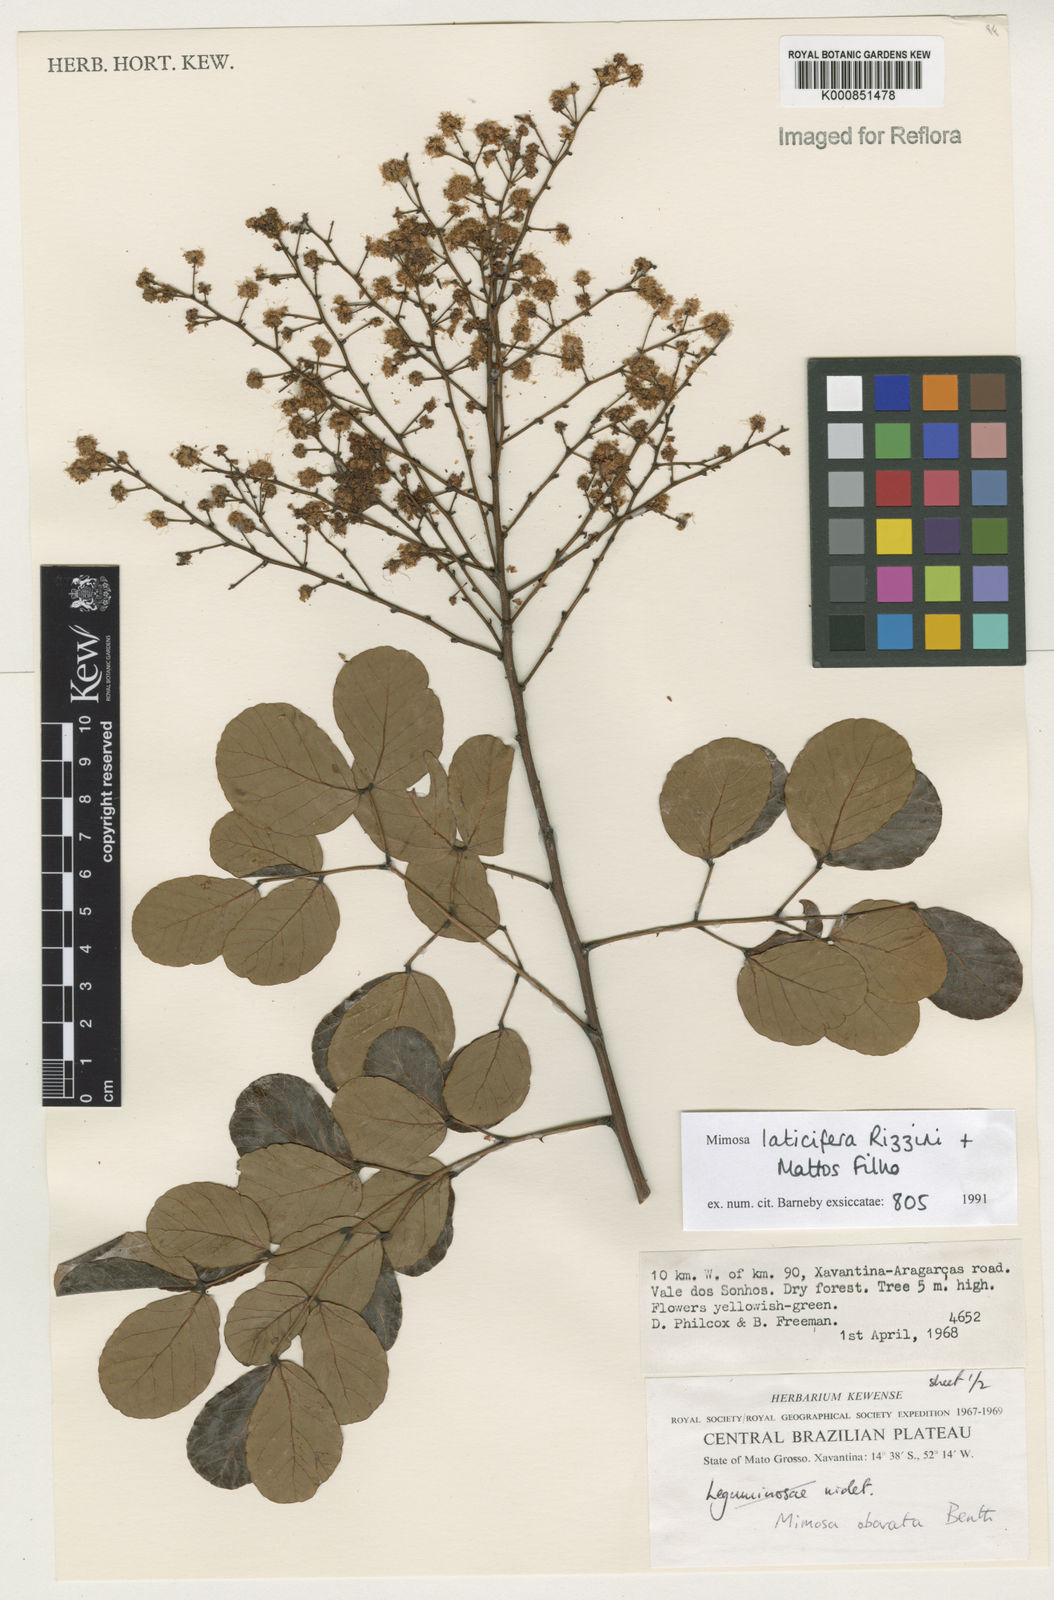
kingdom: Plantae
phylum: Tracheophyta
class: Magnoliopsida
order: Fabales
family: Fabaceae
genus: Mimosa
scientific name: Mimosa laticifera
